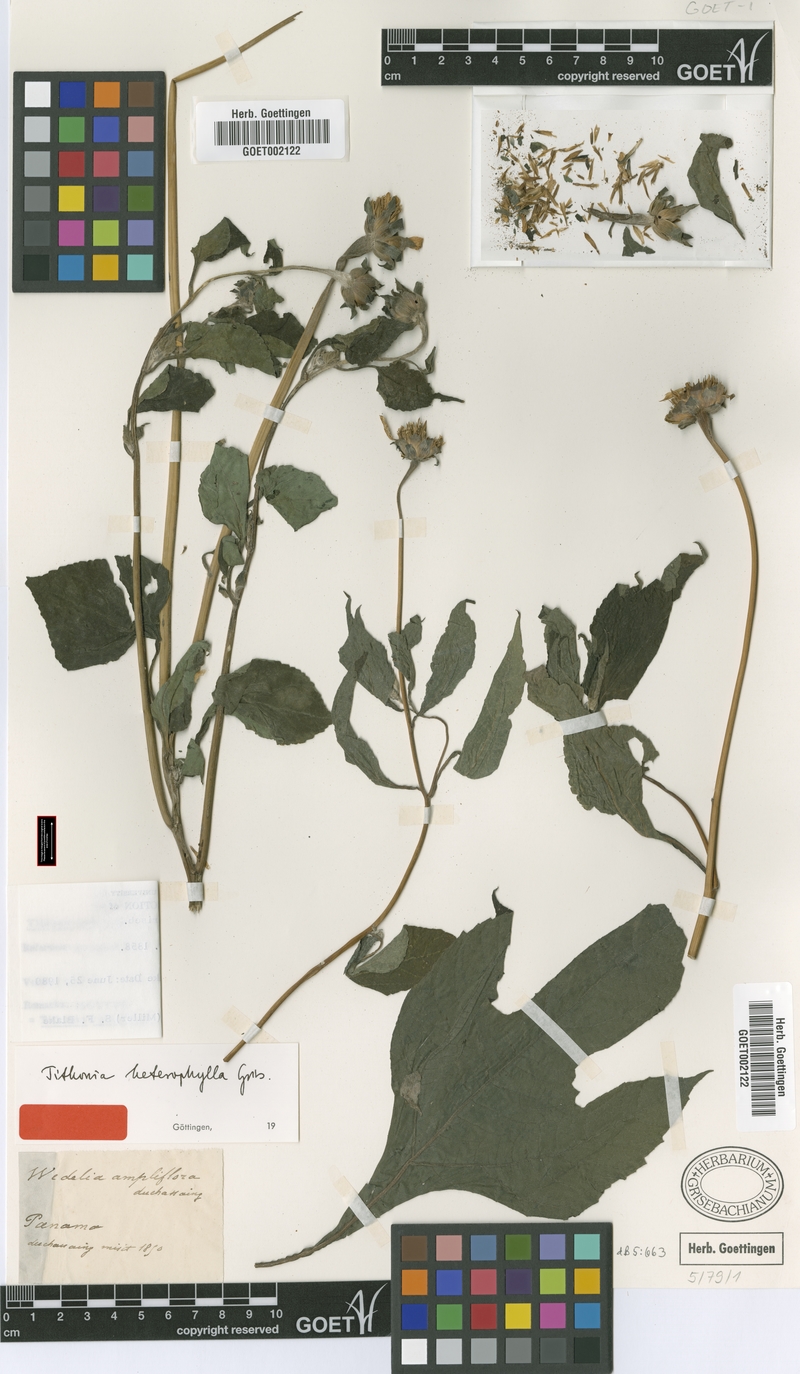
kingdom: Plantae
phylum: Tracheophyta
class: Magnoliopsida
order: Asterales
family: Asteraceae
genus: Tithonia
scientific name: Tithonia rotundifolia
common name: Sunflower
